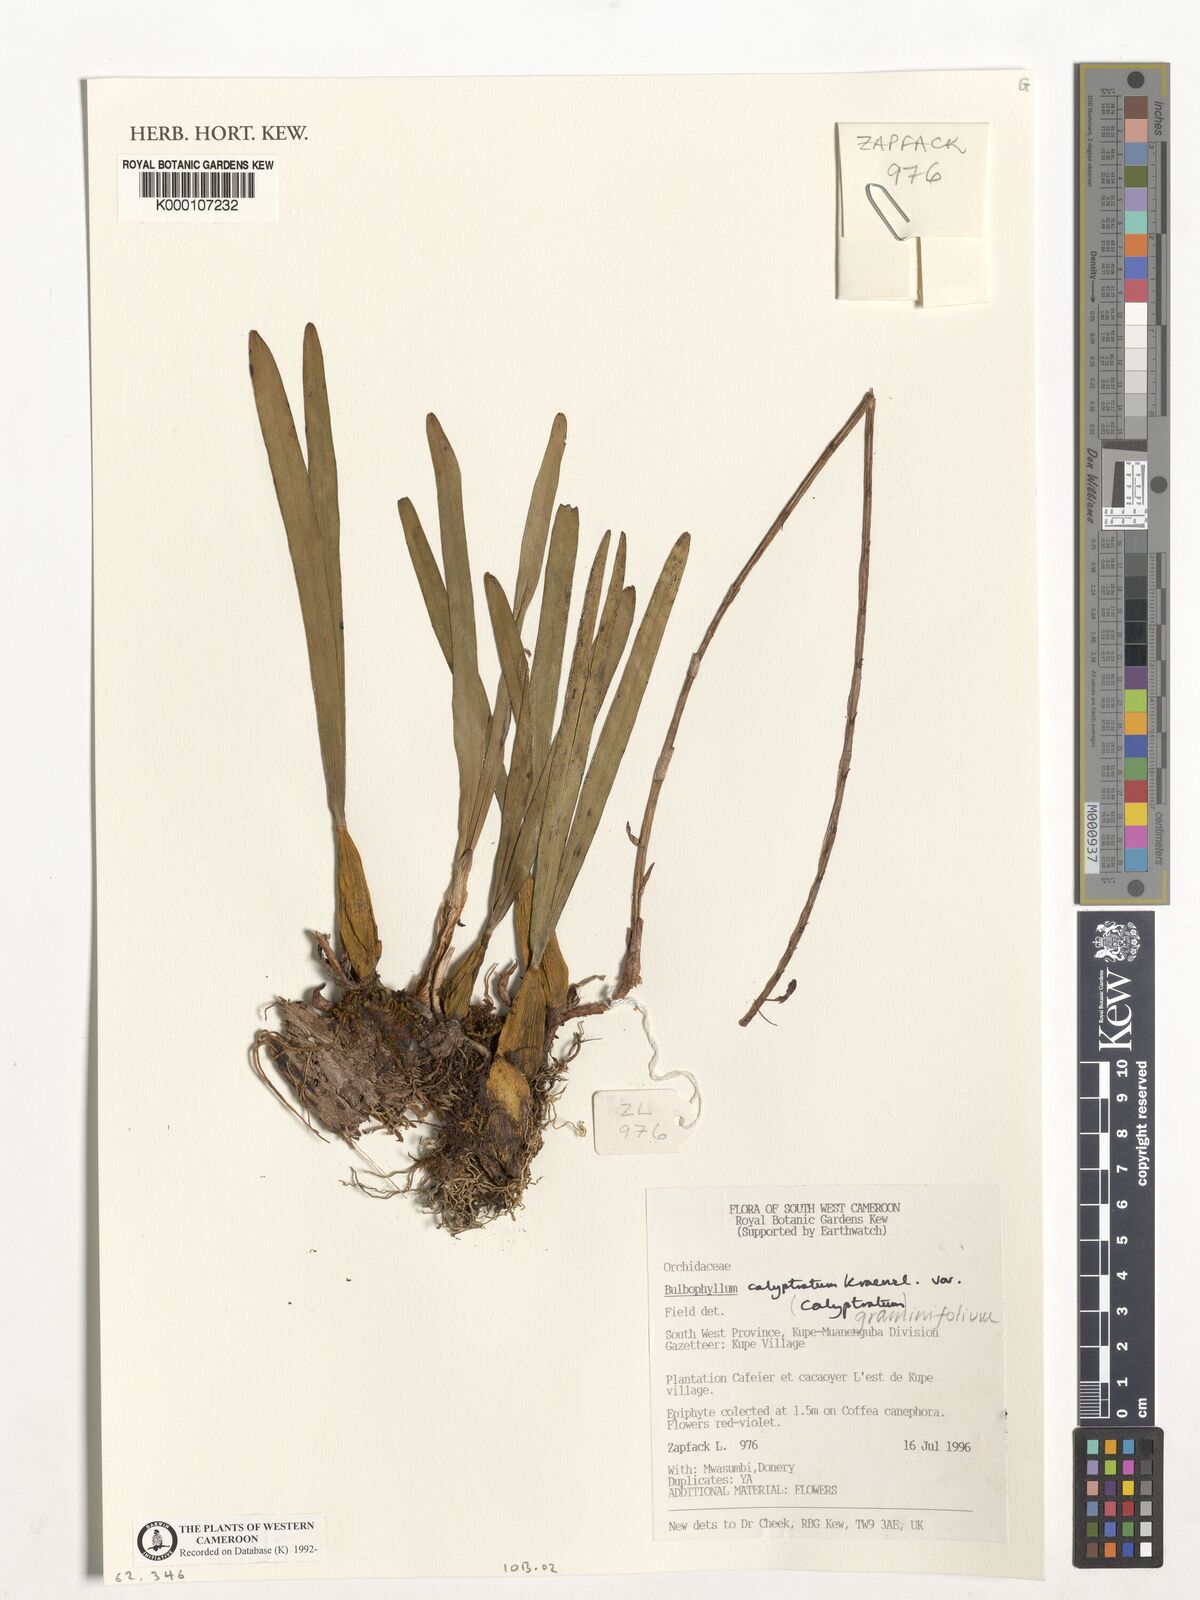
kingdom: Plantae
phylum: Tracheophyta
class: Liliopsida
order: Asparagales
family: Orchidaceae
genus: Bulbophyllum
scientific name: Bulbophyllum calyptratum
